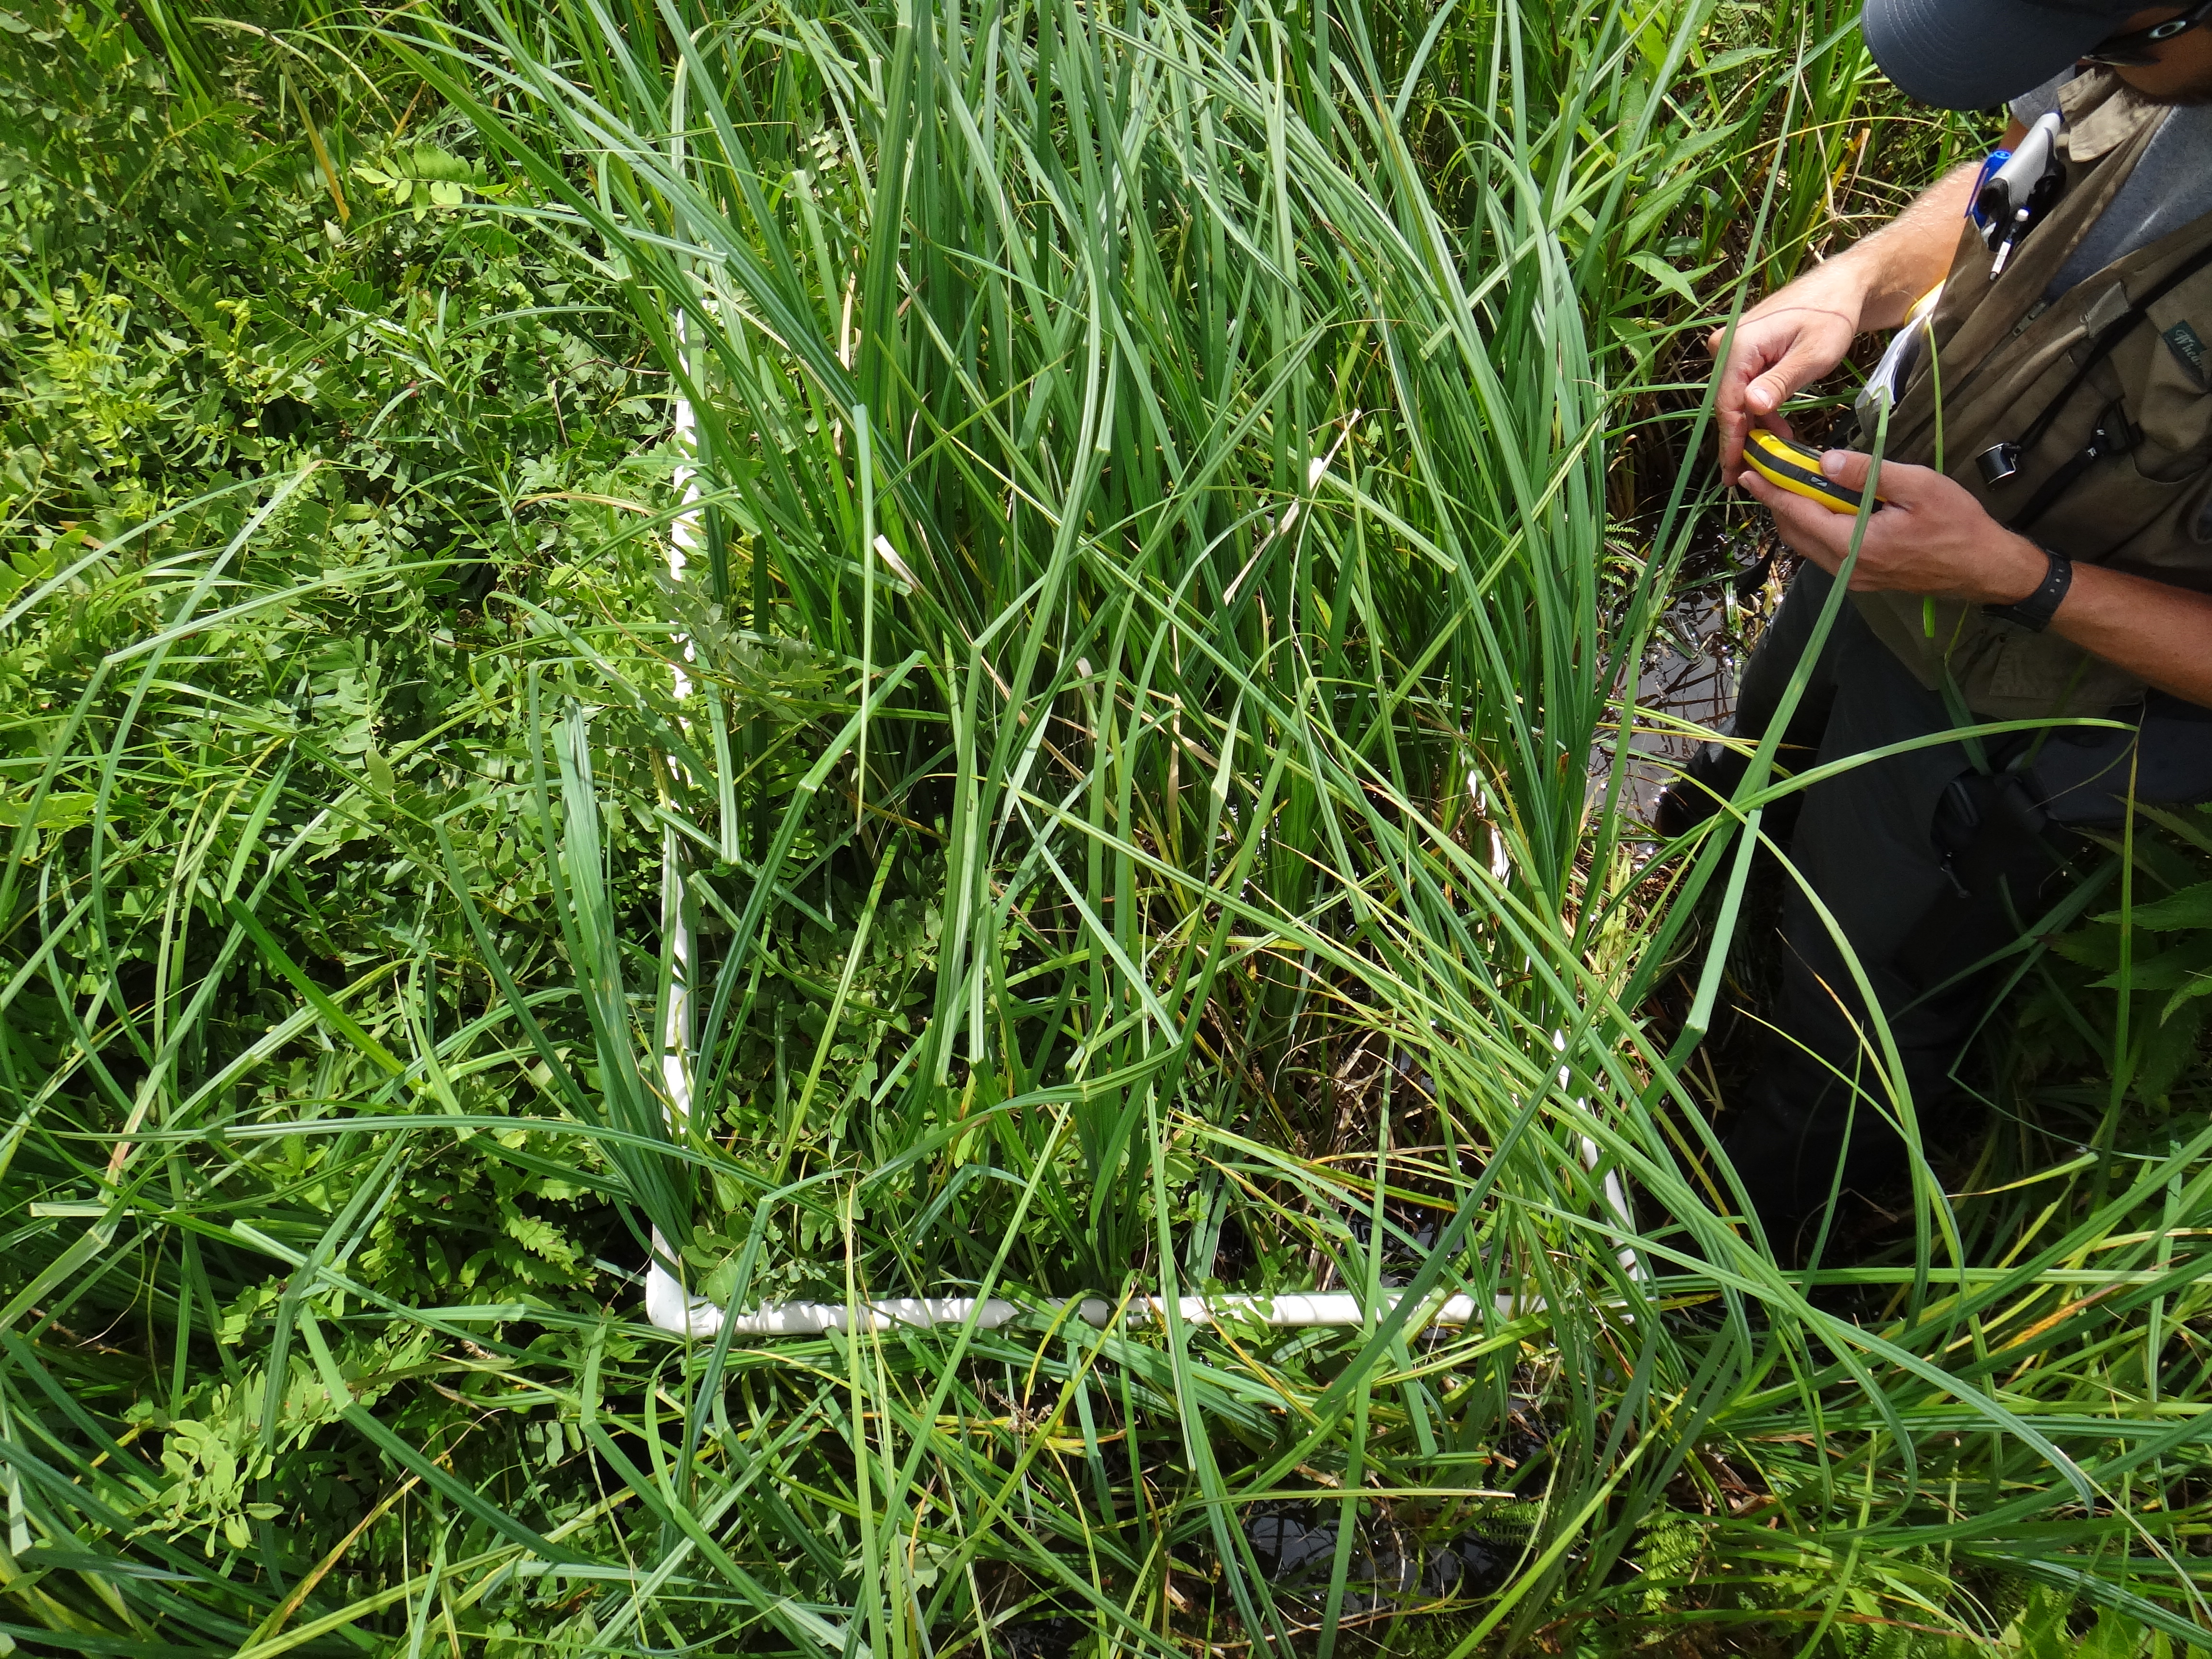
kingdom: Plantae
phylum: Tracheophyta
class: Magnoliopsida
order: Lamiales
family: Lamiaceae
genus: Scutellaria
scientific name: Scutellaria galericulata
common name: Skullcap
